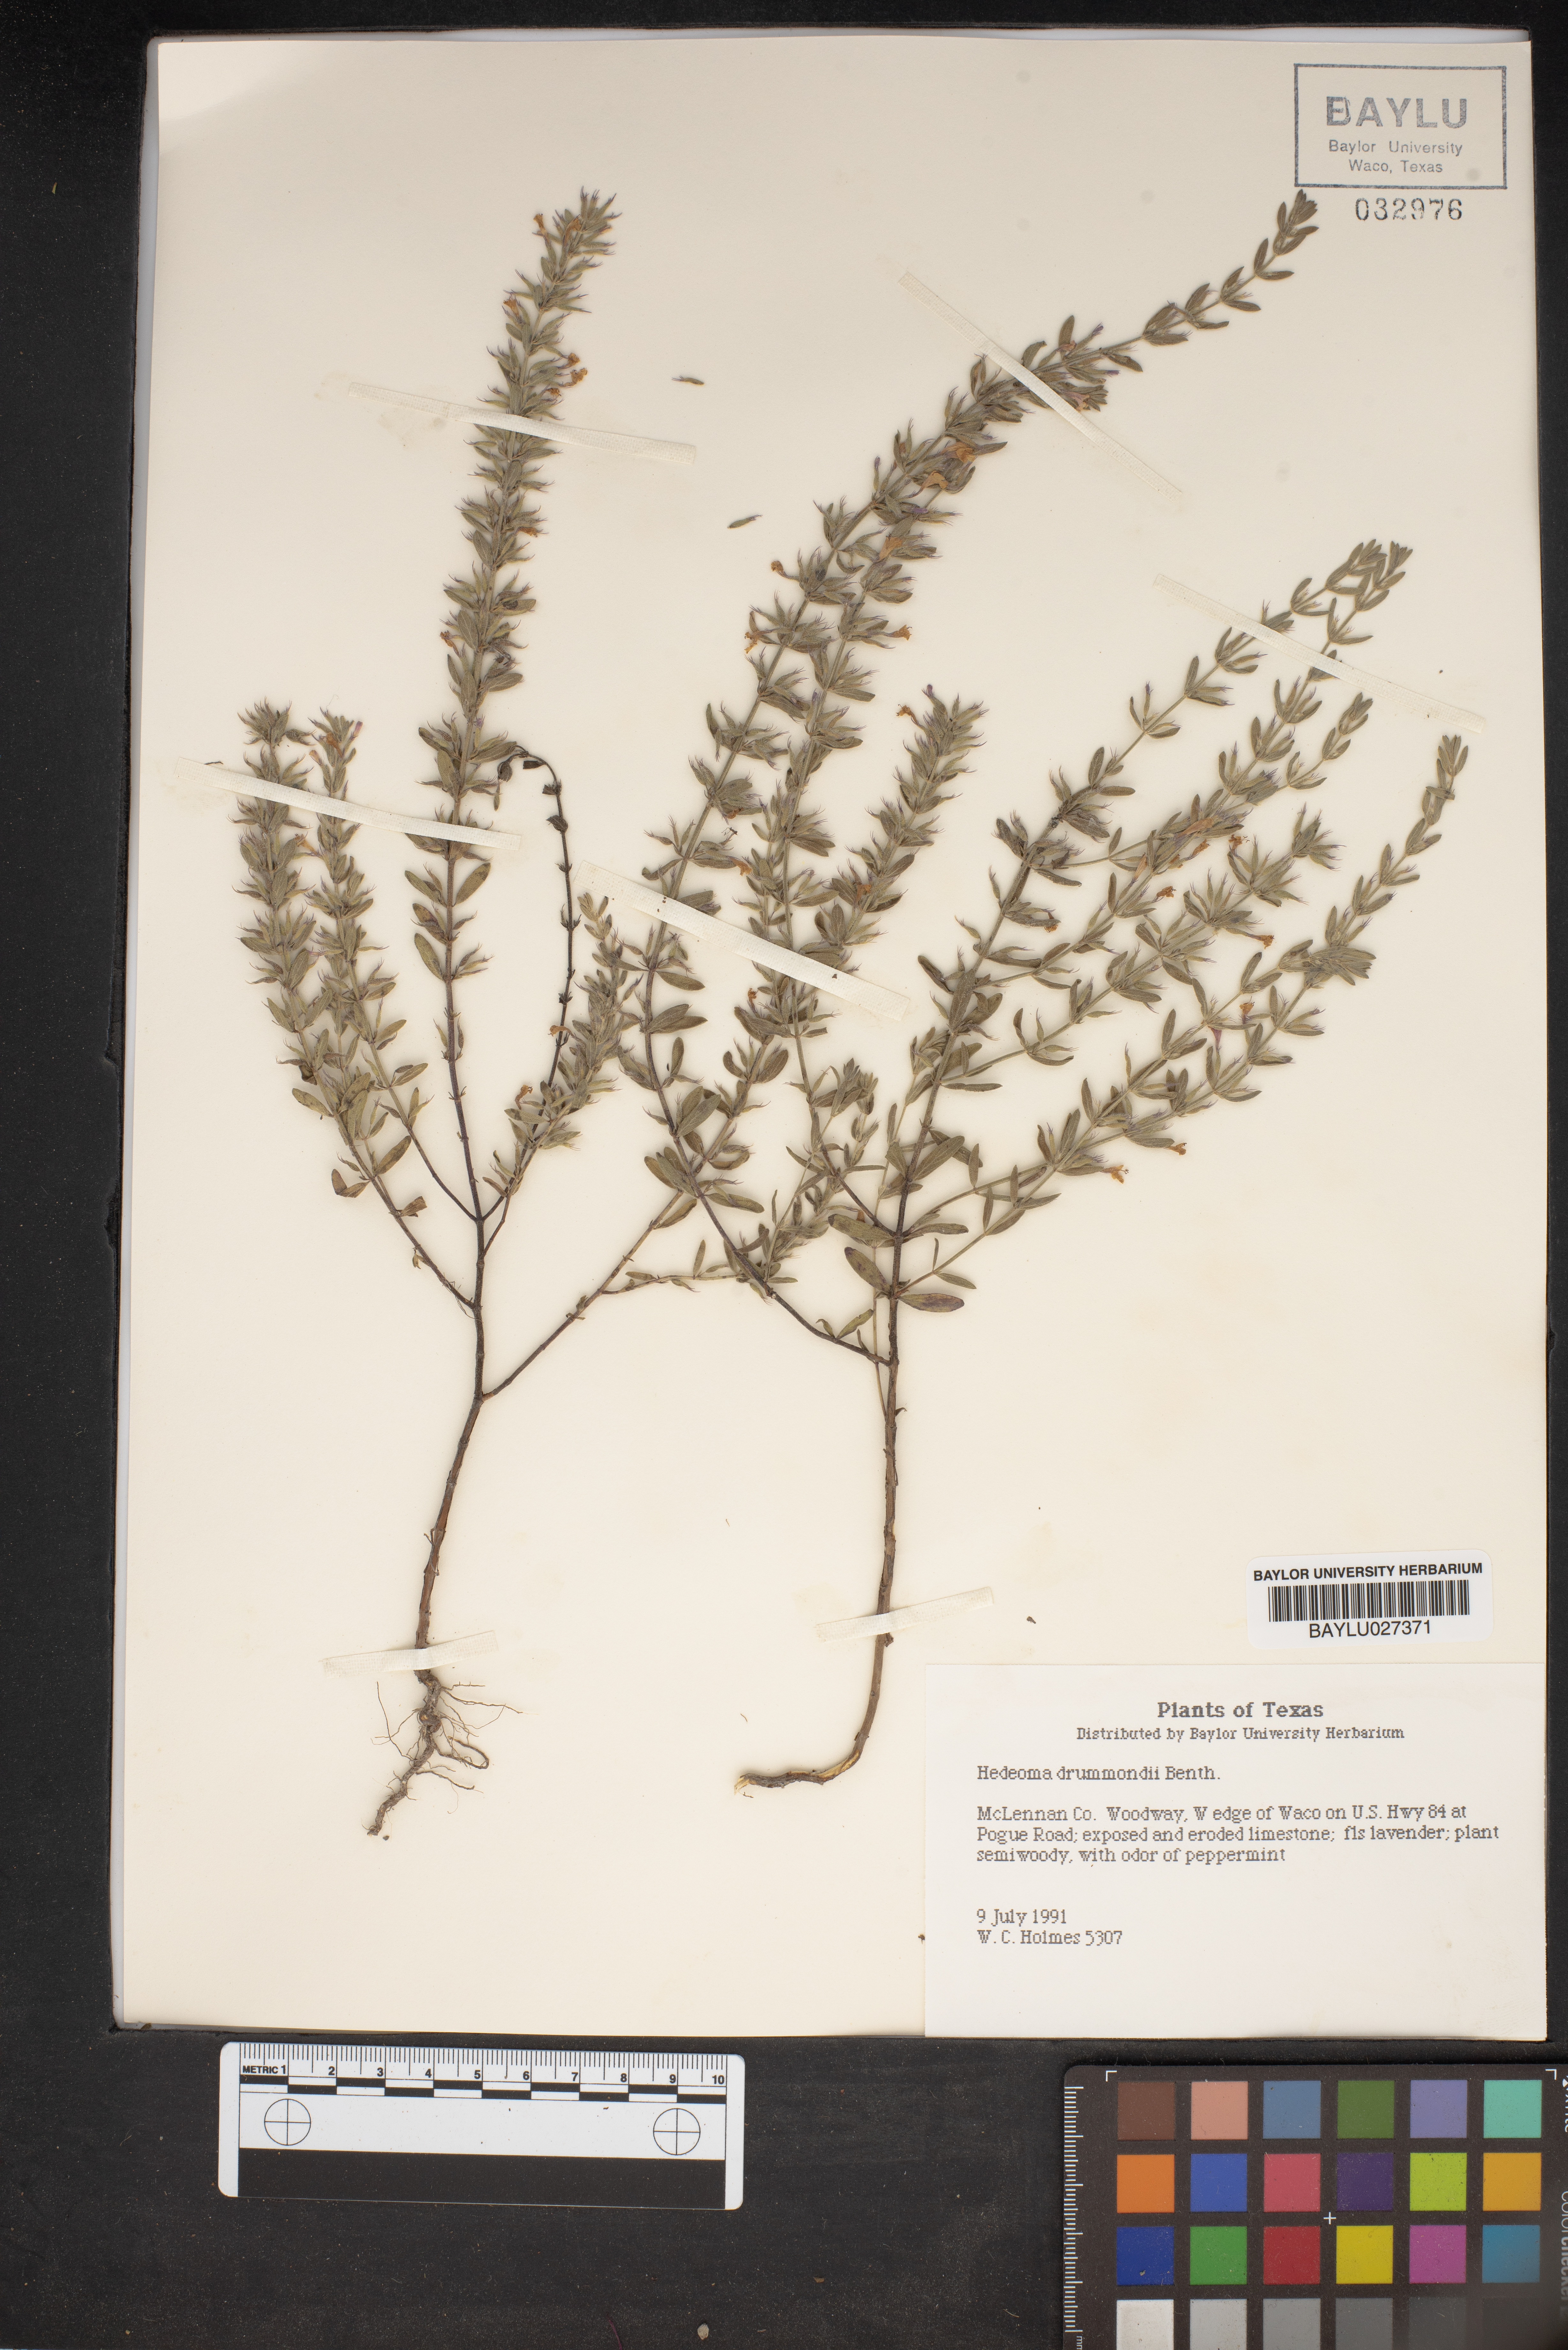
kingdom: Plantae
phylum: Tracheophyta
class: Magnoliopsida
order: Lamiales
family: Lamiaceae
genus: Hedeoma
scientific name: Hedeoma drummondii
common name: New mexico pennyroyal
